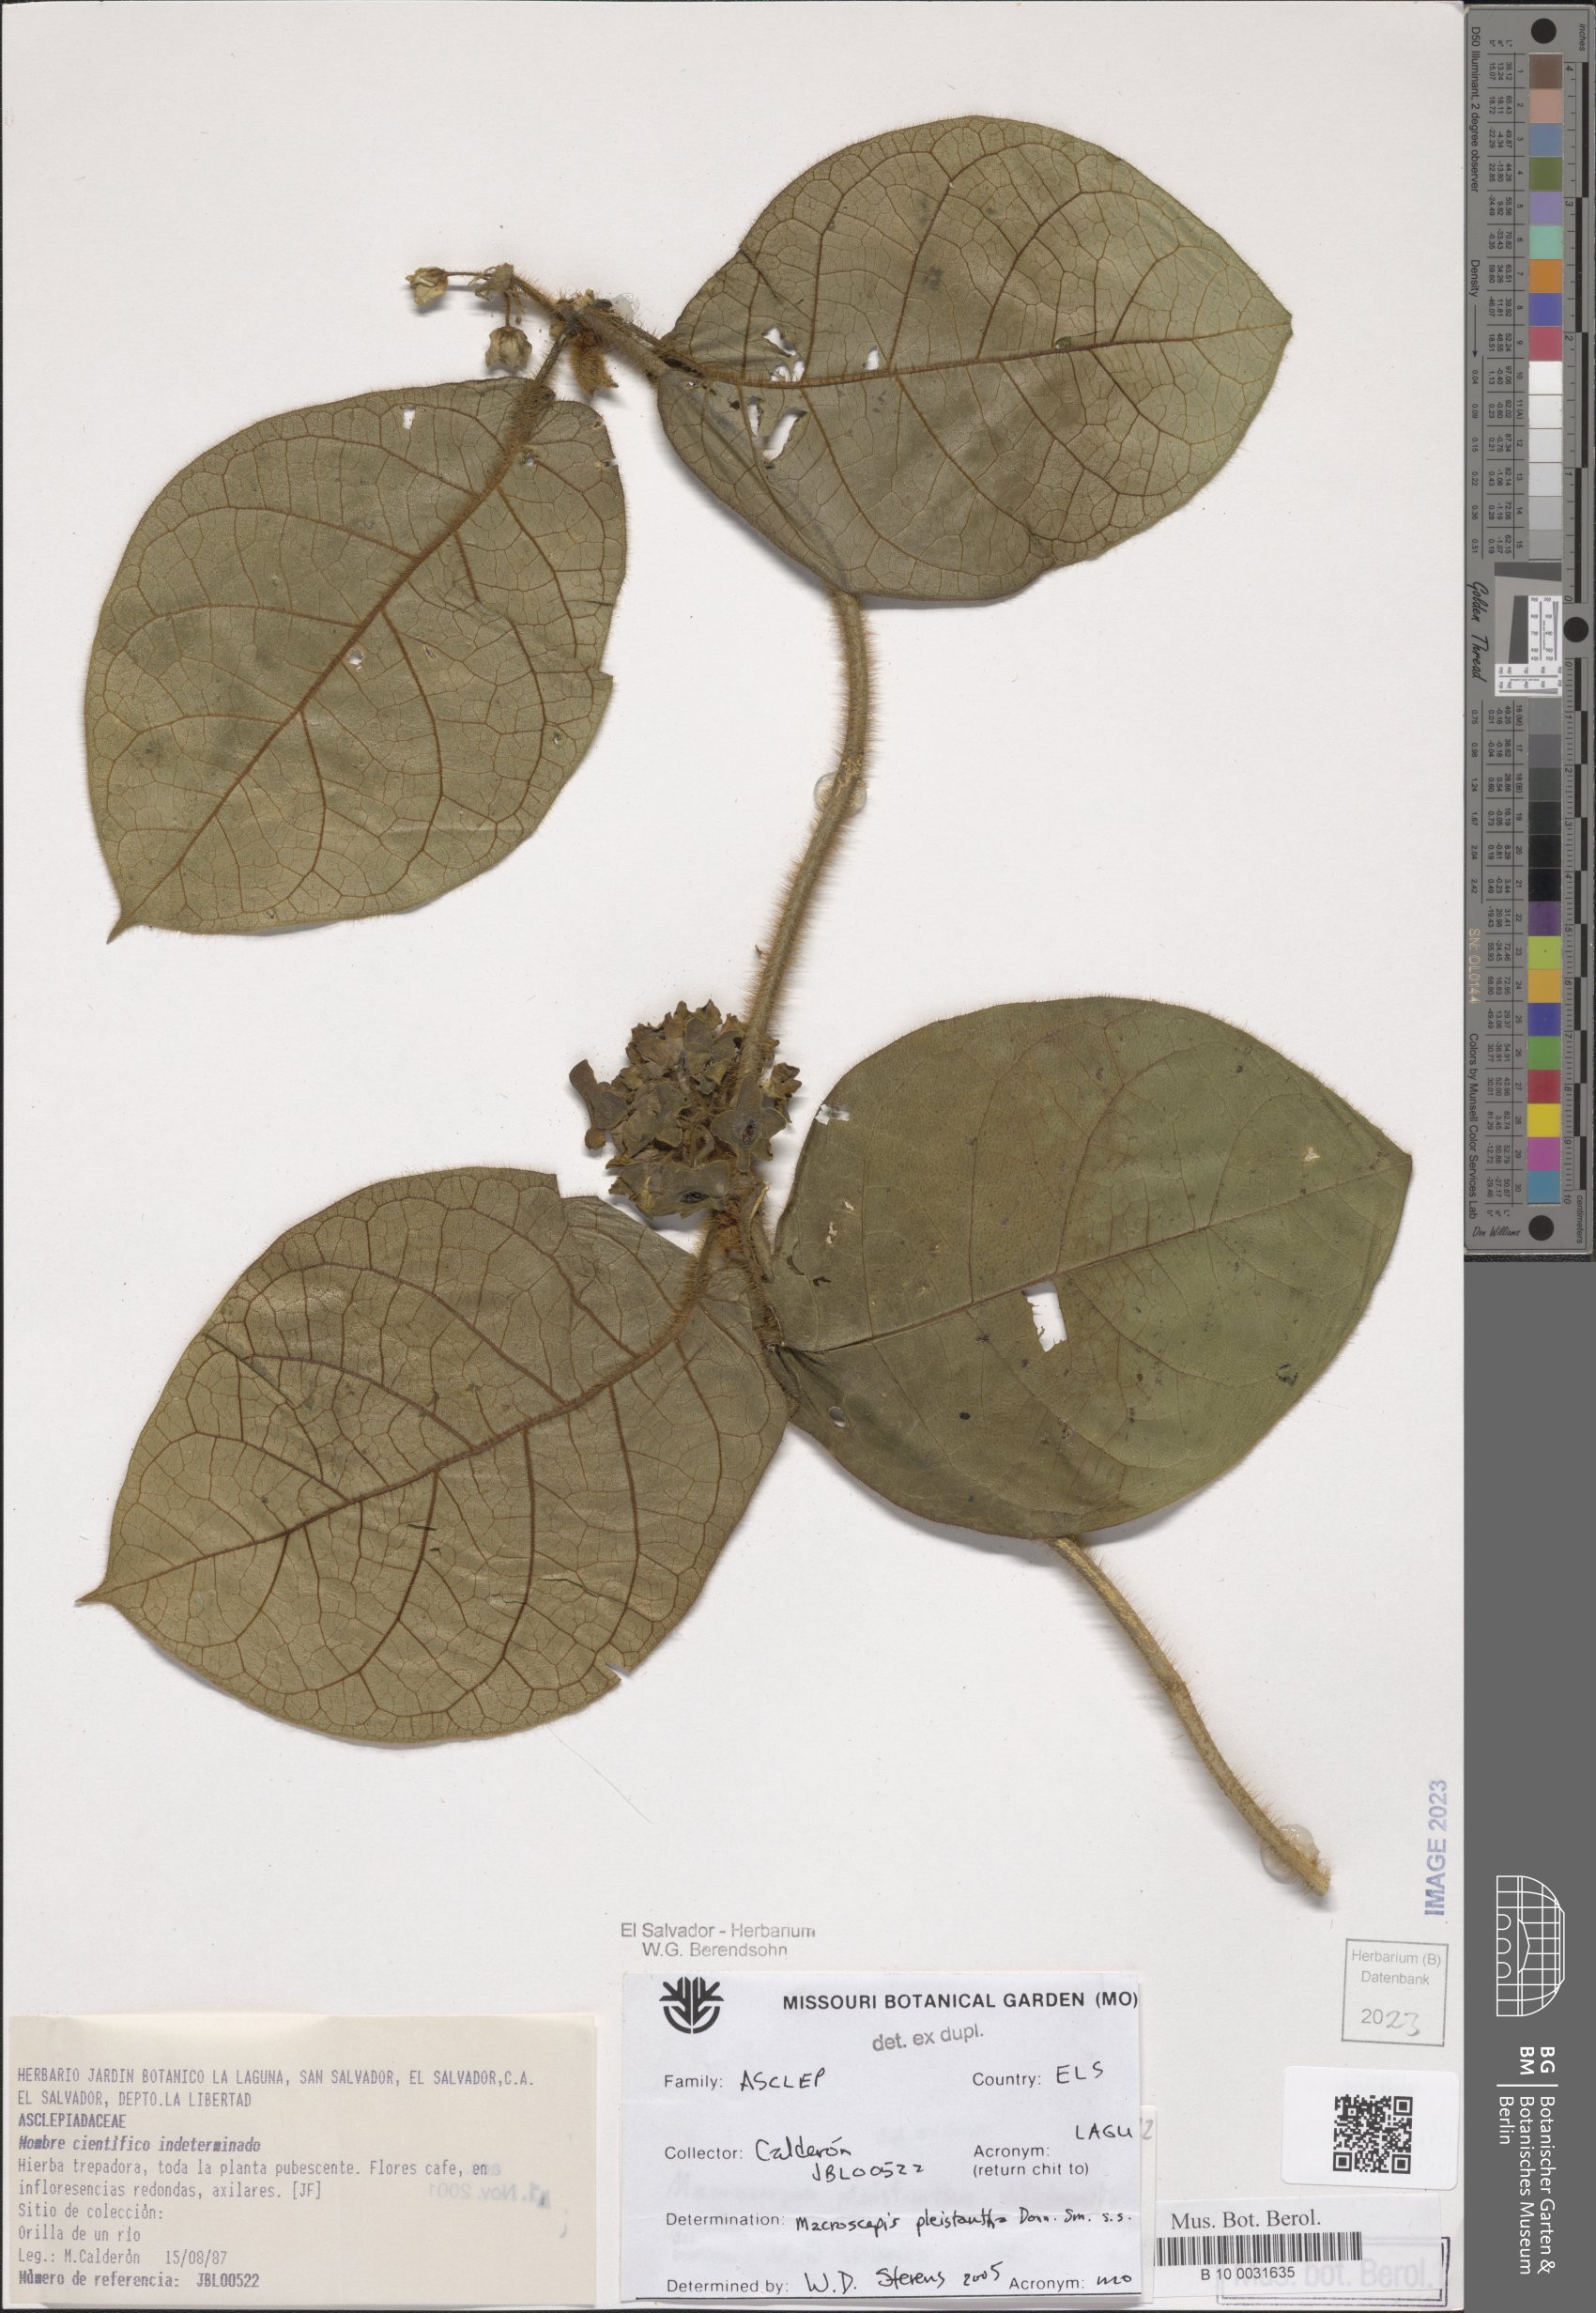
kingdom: Plantae
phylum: Tracheophyta
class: Magnoliopsida
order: Gentianales
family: Apocynaceae
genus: Macroscepis
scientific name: Macroscepis pleistantha
